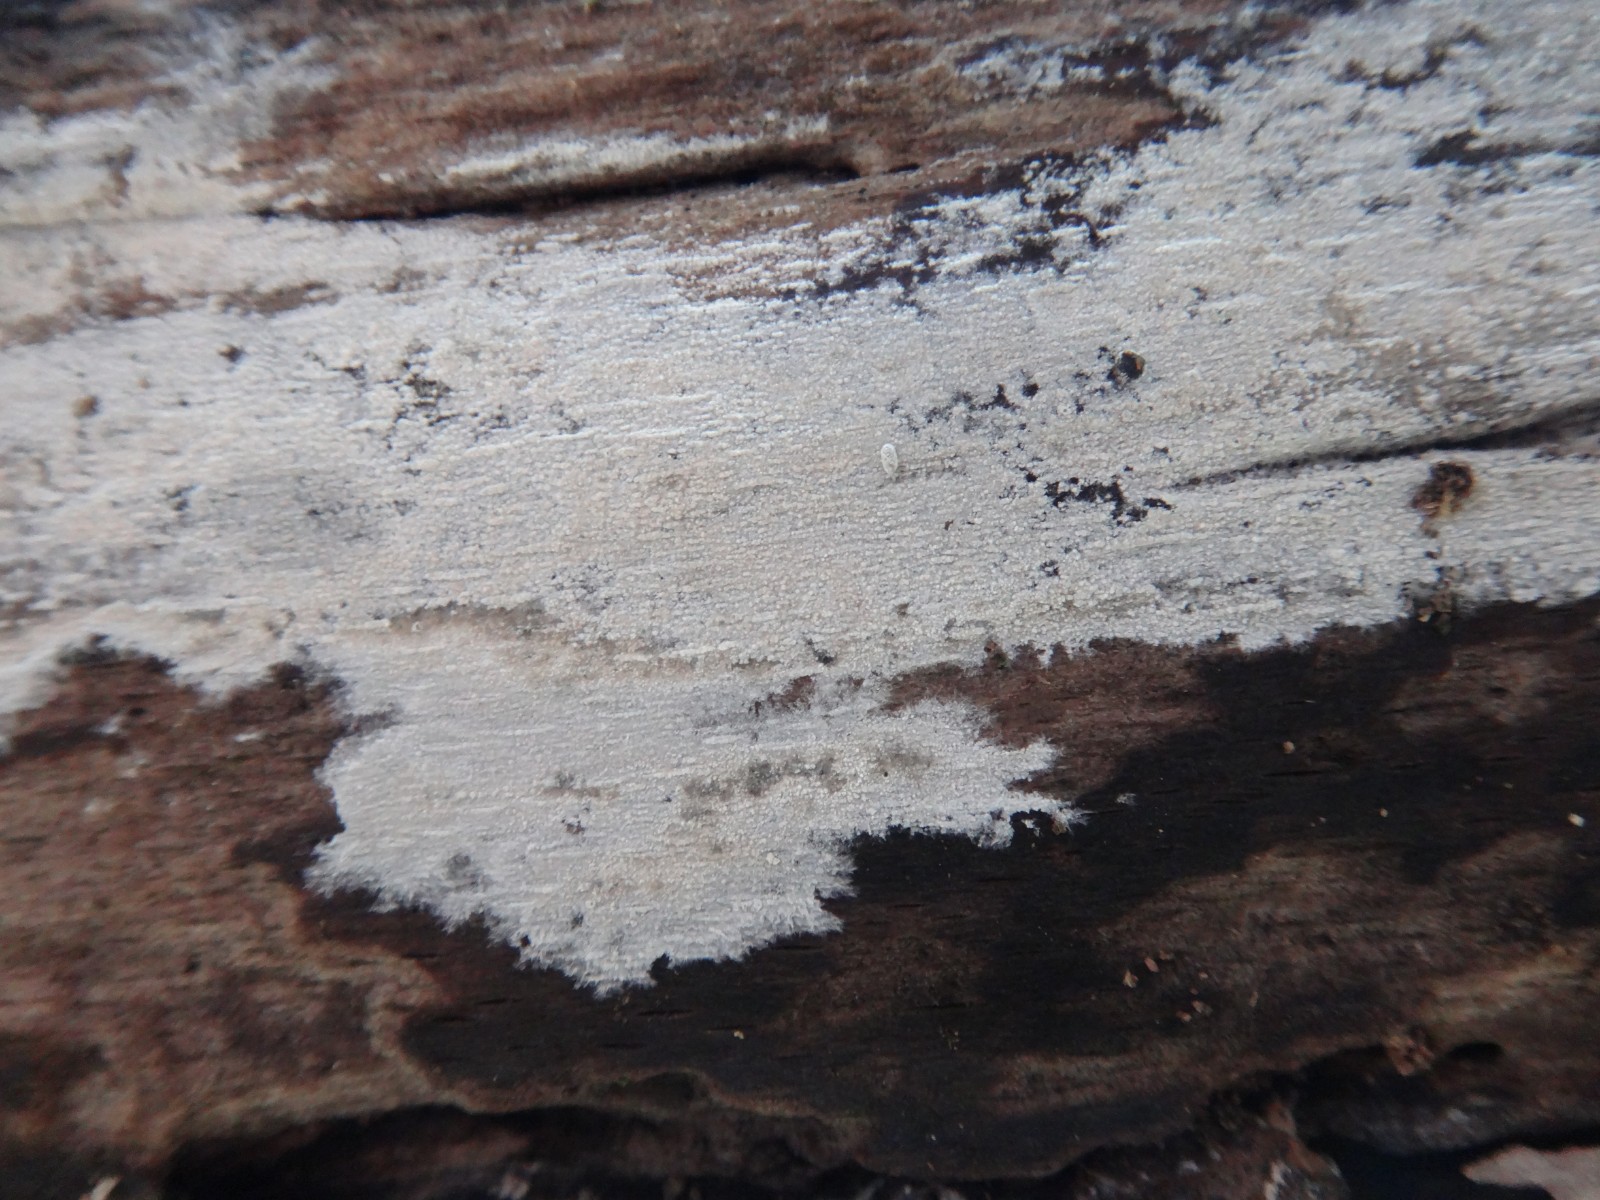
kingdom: Fungi
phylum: Basidiomycota
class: Agaricomycetes
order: Cantharellales
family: Hydnaceae
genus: Sistotrema
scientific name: Sistotrema brinkmannii
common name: bønnesporet kroneskorpe
